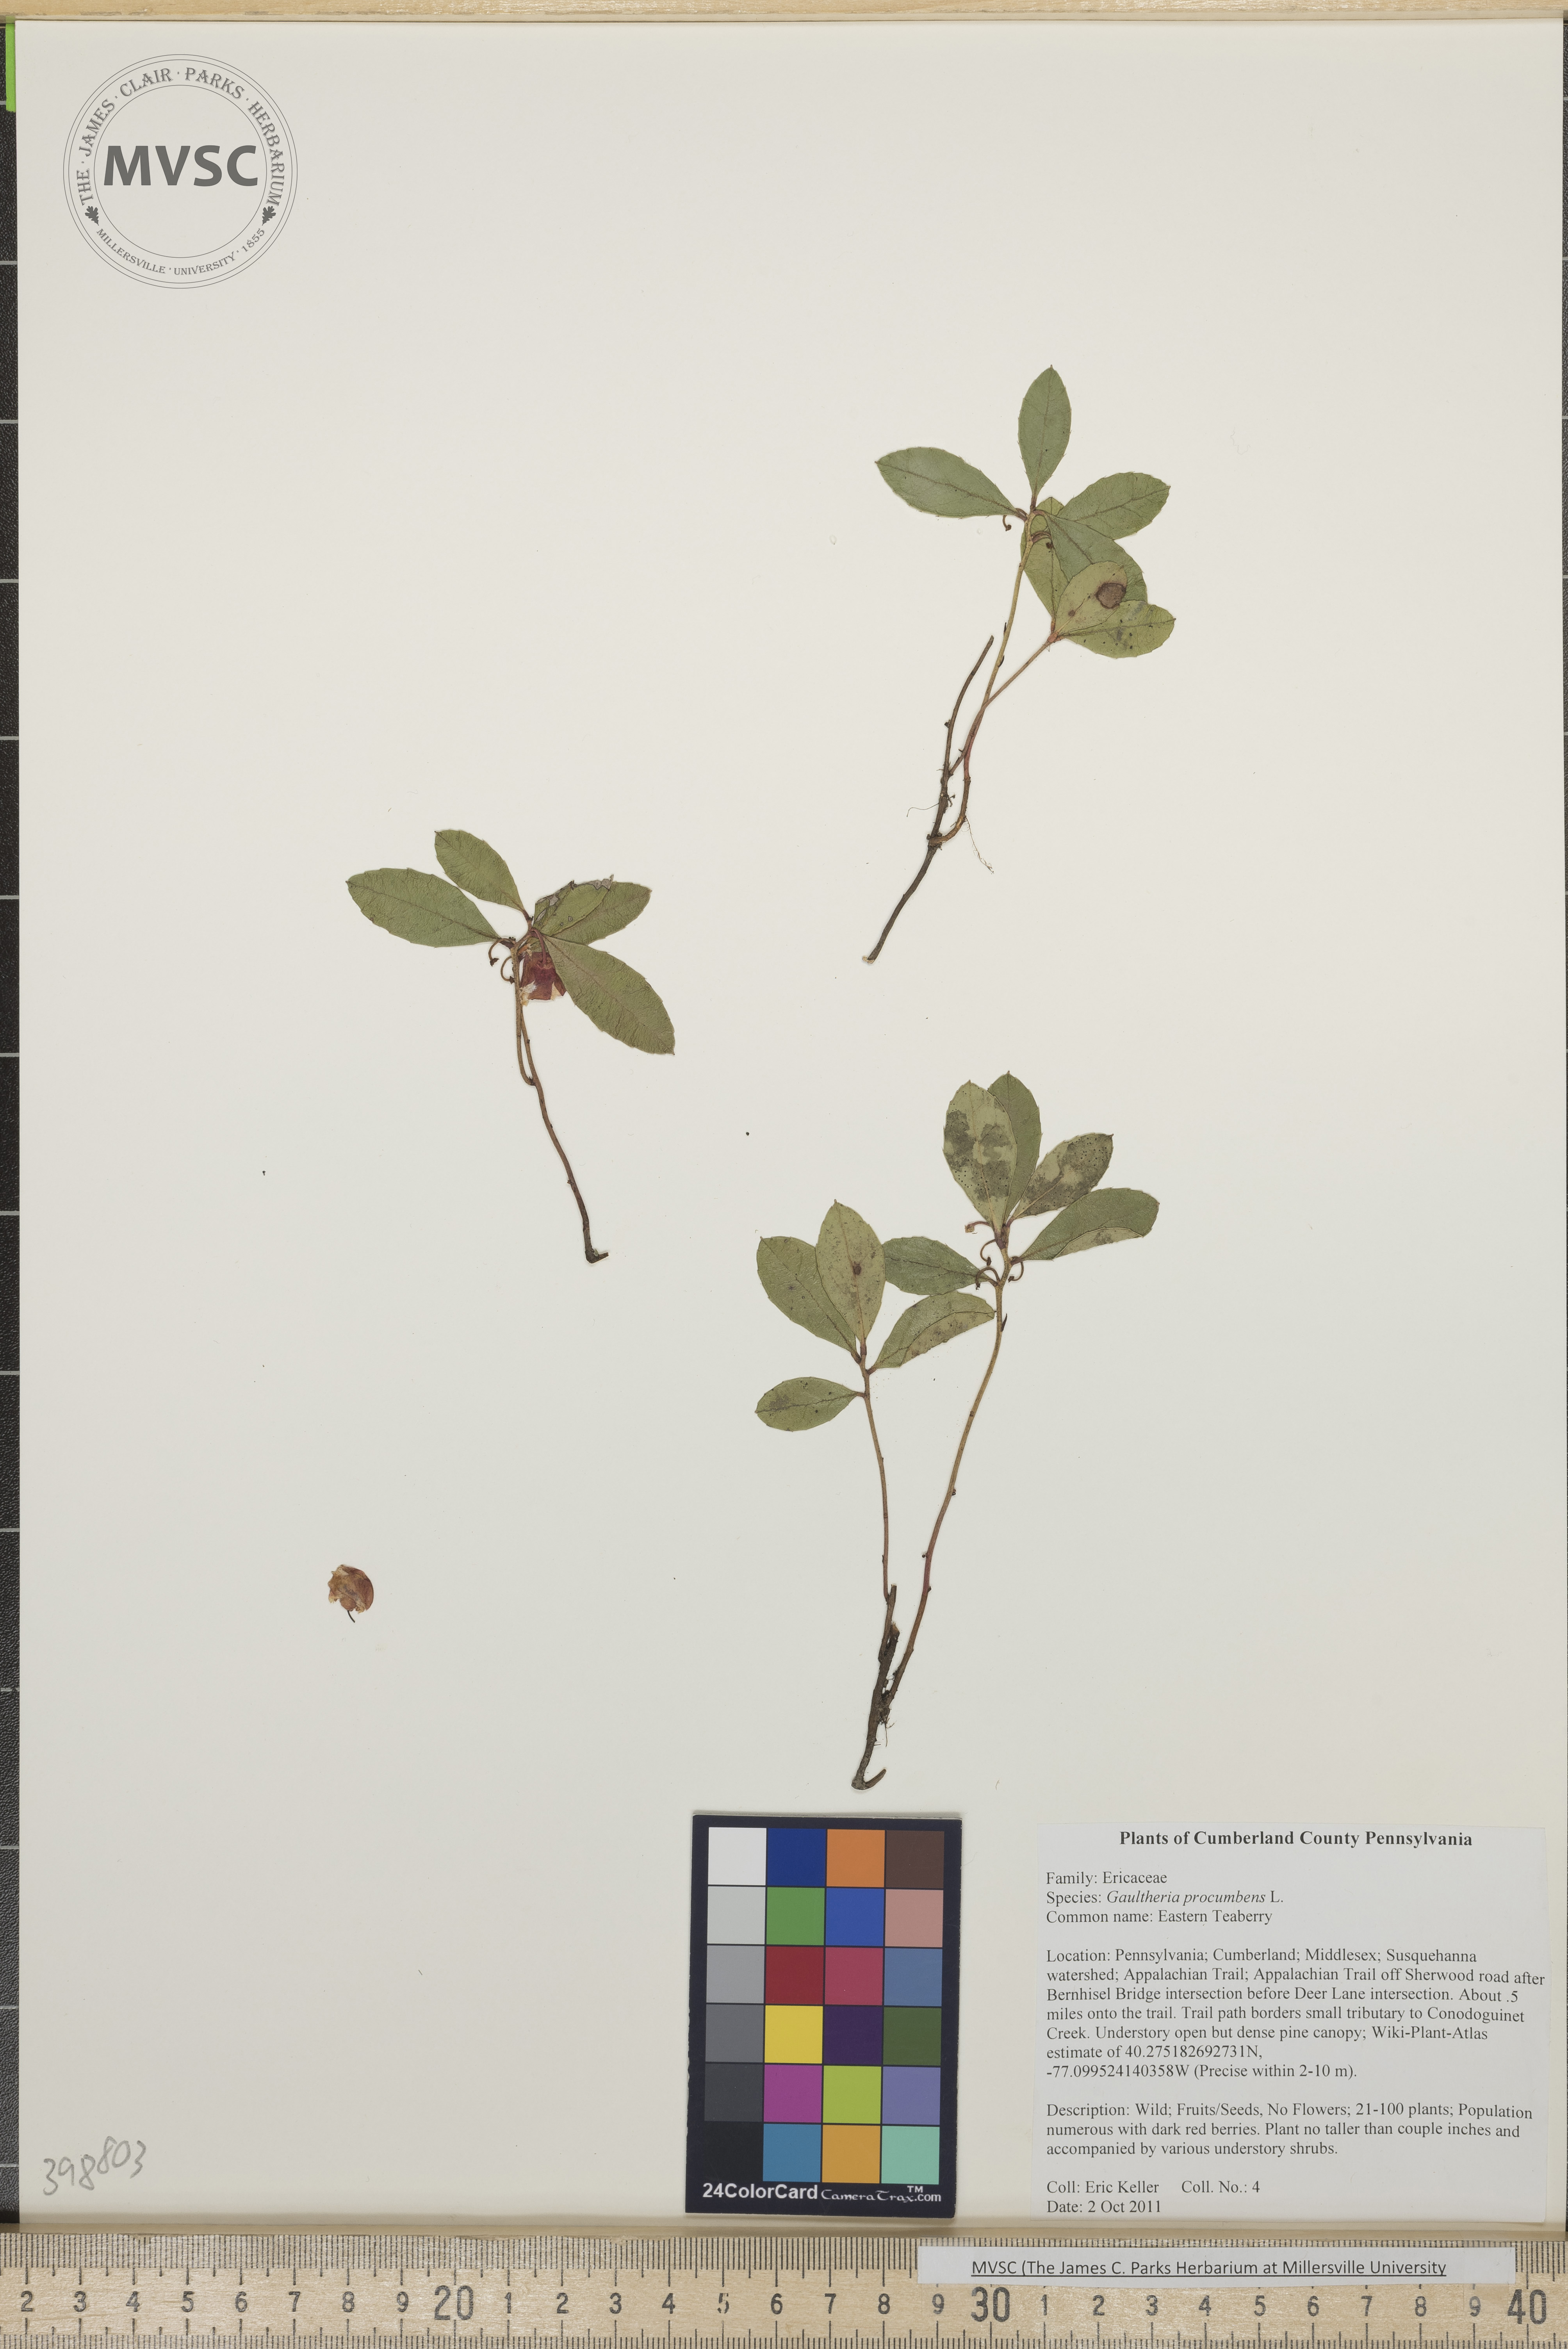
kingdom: Plantae
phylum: Tracheophyta
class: Magnoliopsida
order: Ericales
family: Ericaceae
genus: Gaultheria
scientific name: Gaultheria procumbens
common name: Teaberry
